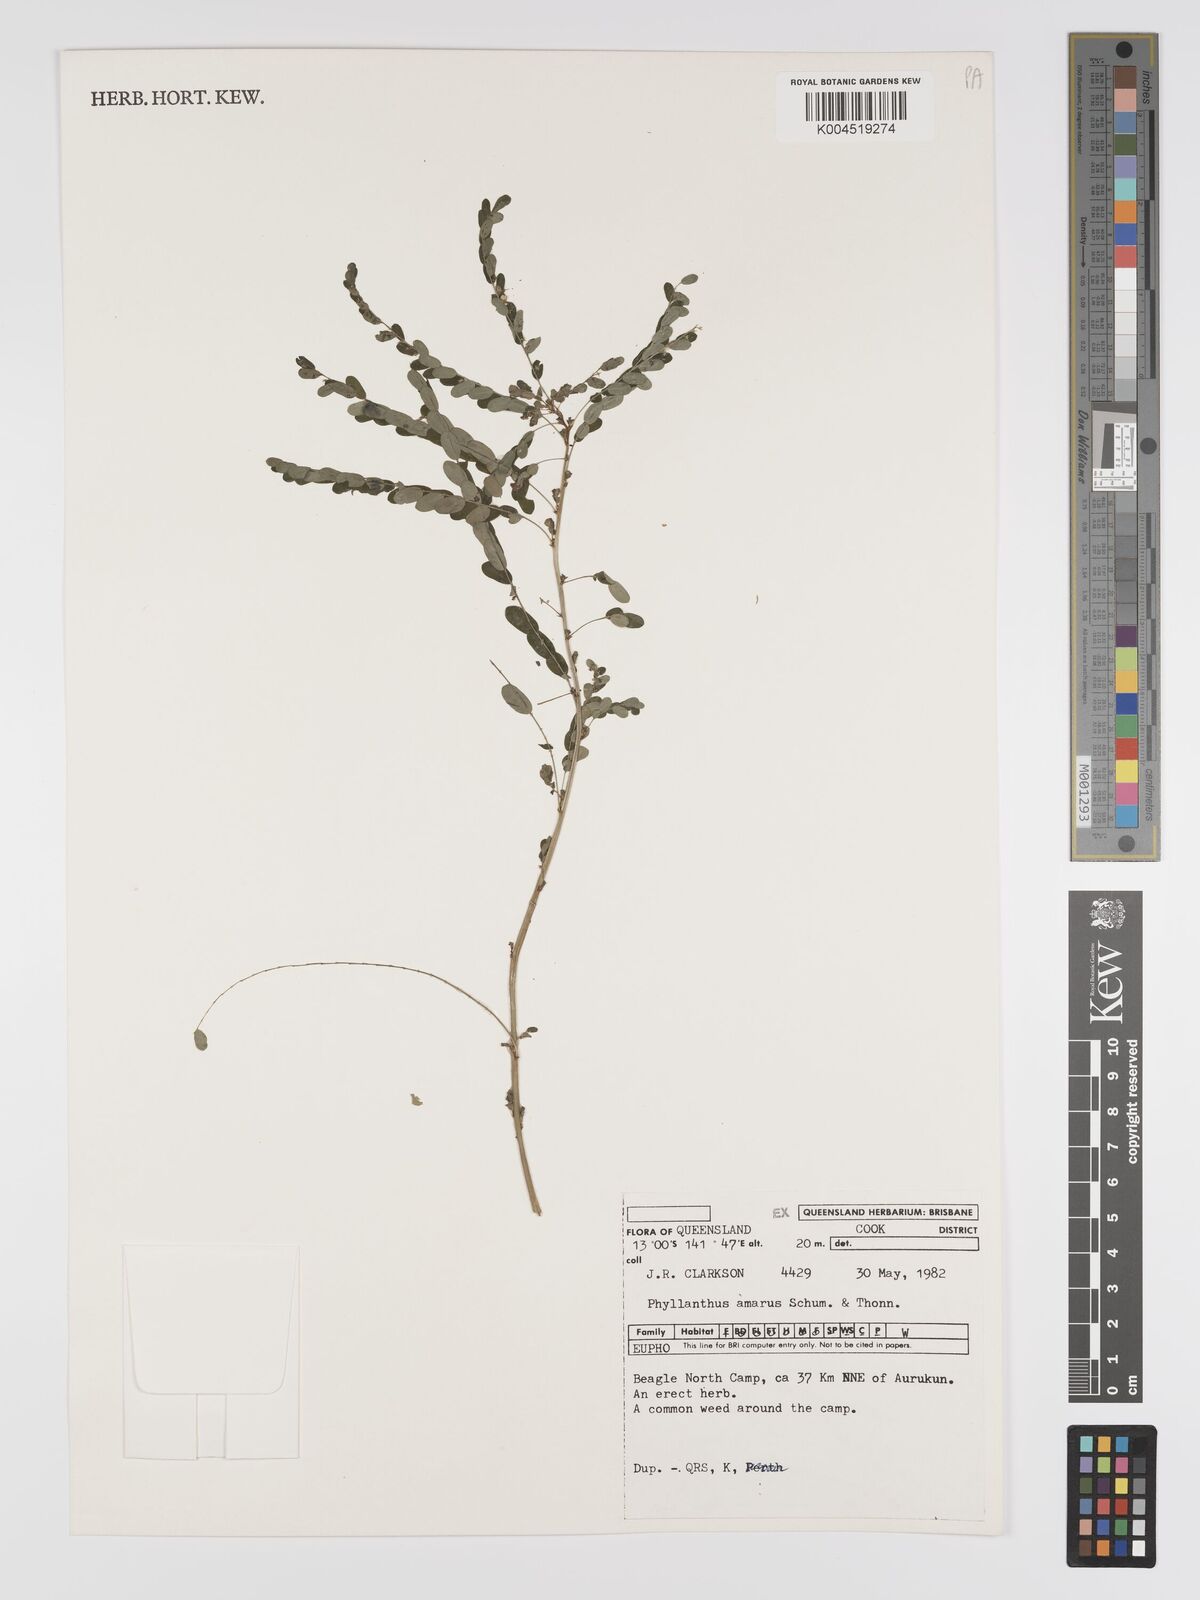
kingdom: Plantae
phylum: Tracheophyta
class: Magnoliopsida
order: Malpighiales
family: Phyllanthaceae
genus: Phyllanthus
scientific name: Phyllanthus amarus
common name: Carry me seed
